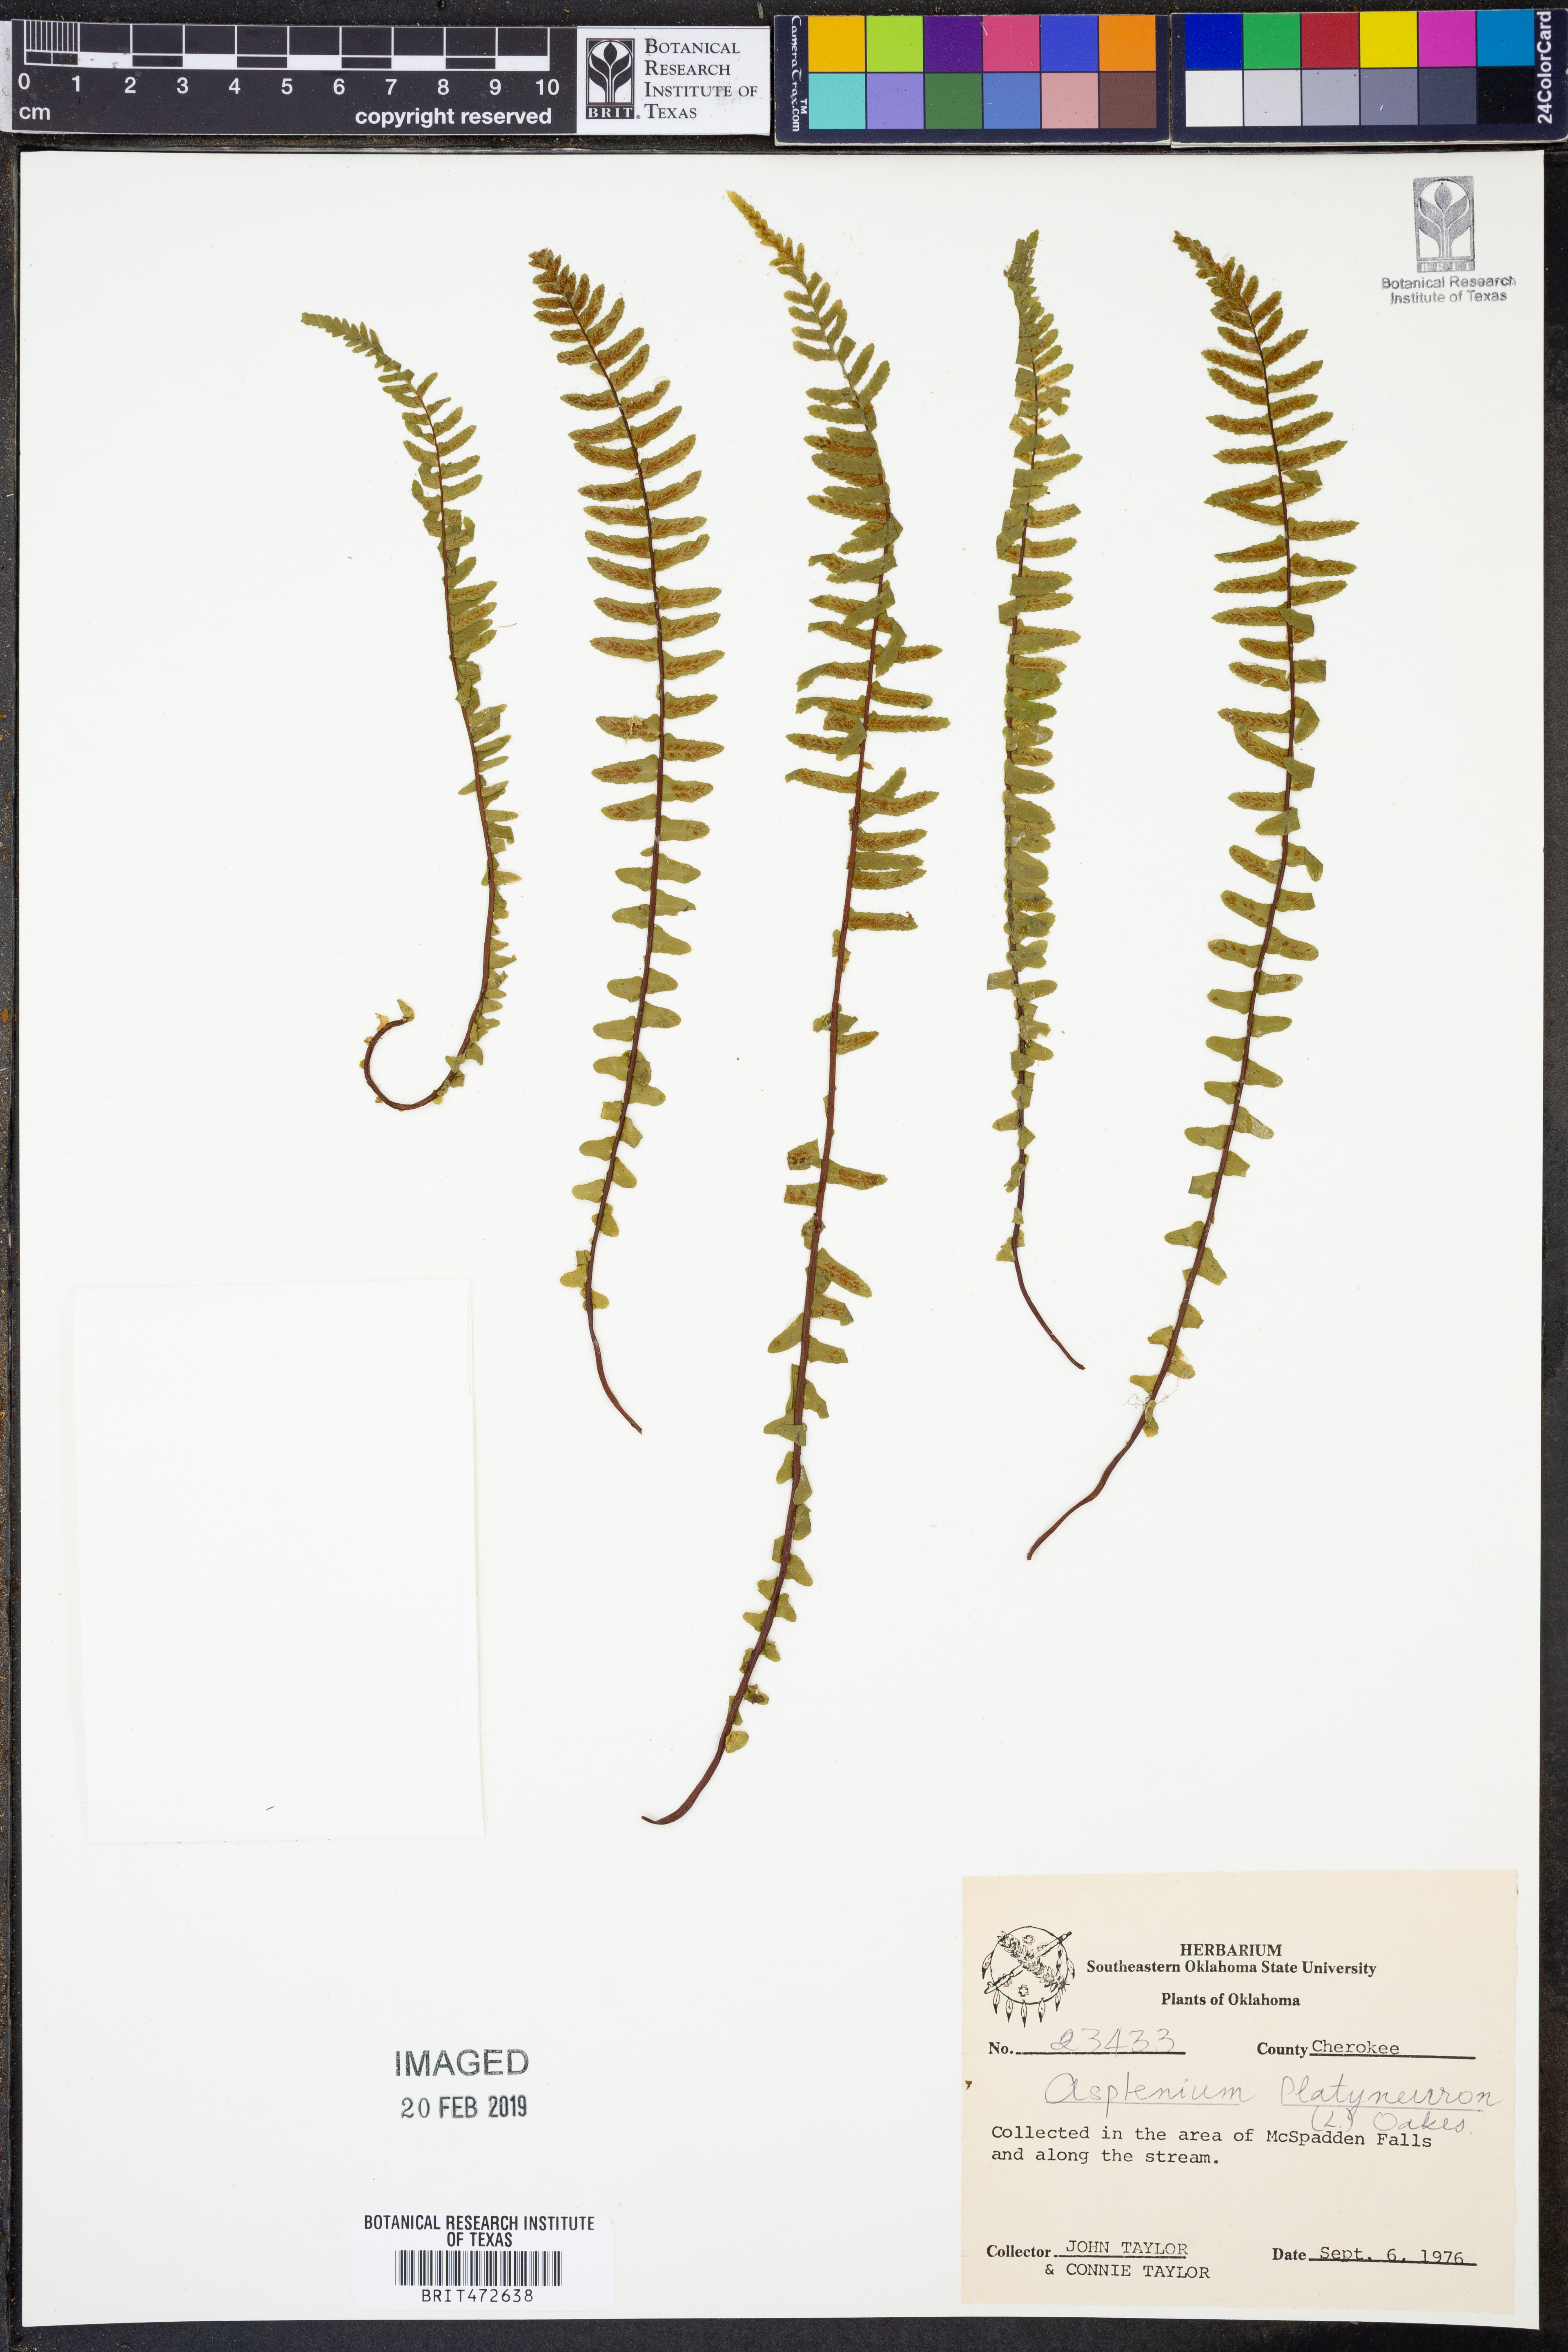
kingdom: Plantae
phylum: Tracheophyta
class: Polypodiopsida
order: Polypodiales
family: Aspleniaceae
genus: Asplenium
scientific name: Asplenium platyneuron
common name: Ebony spleenwort
